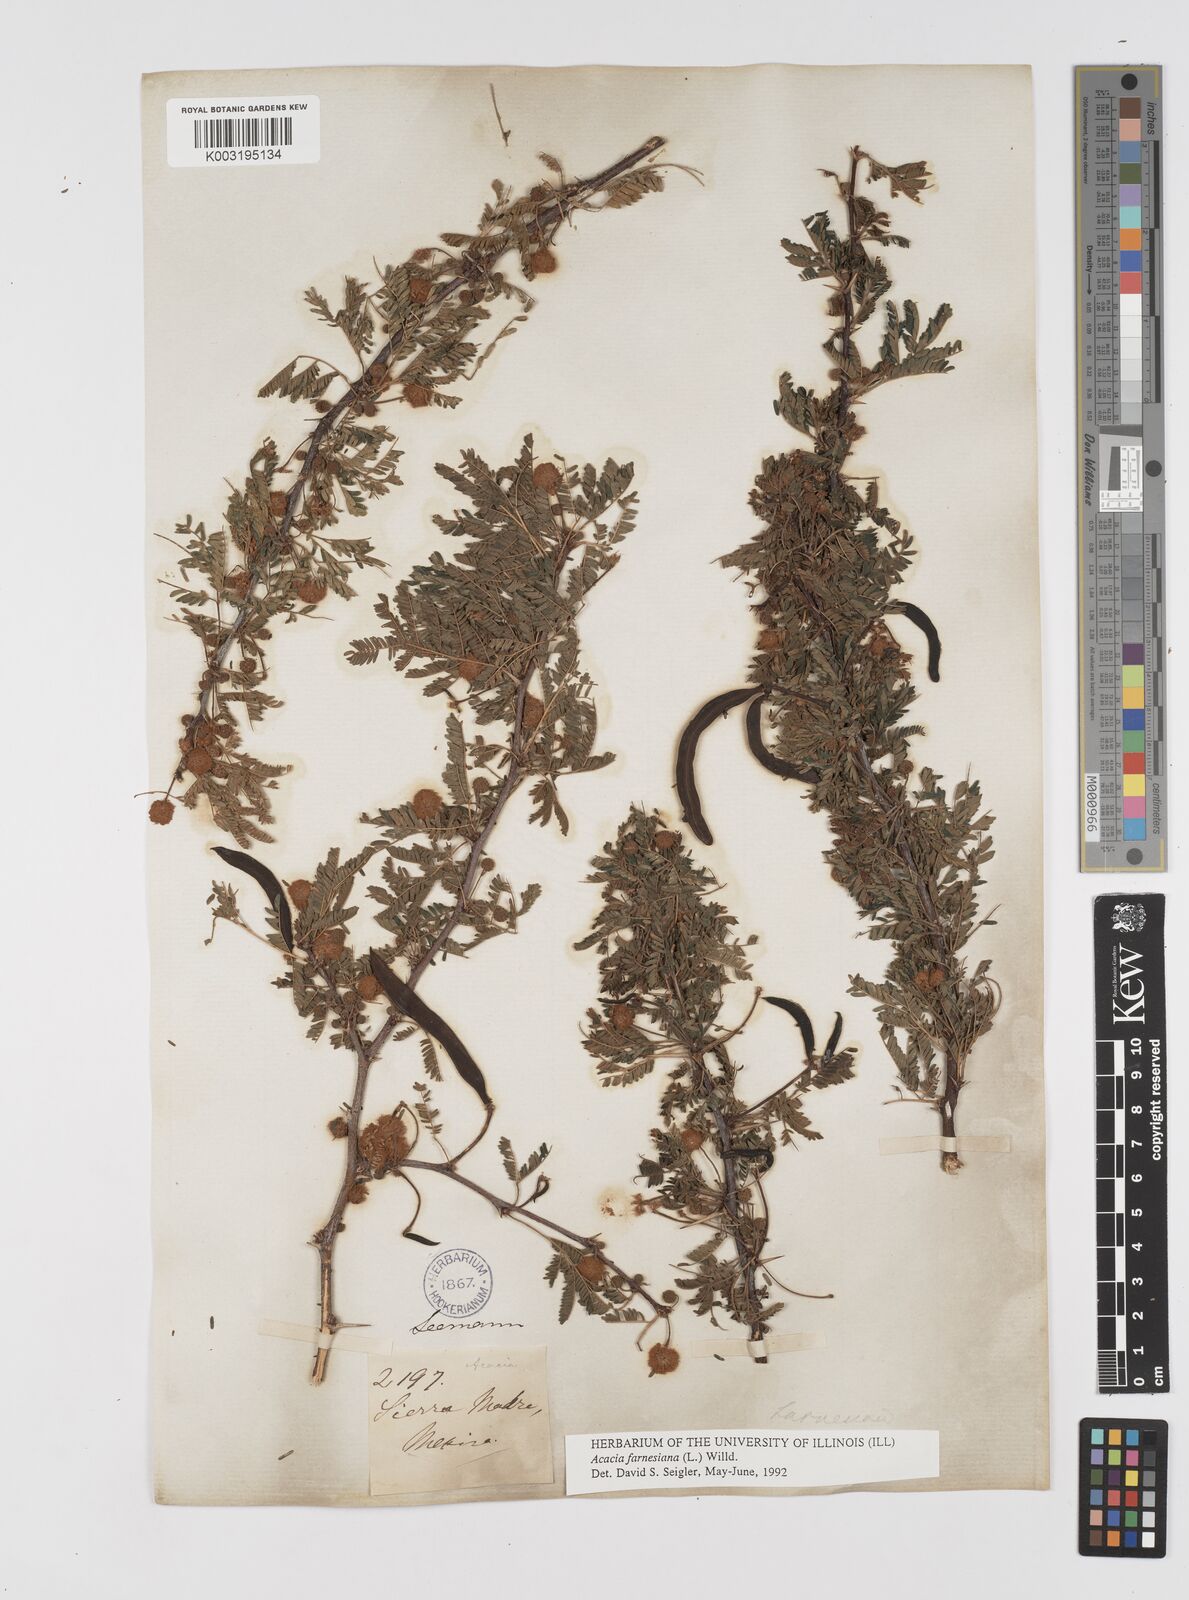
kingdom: Plantae
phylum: Tracheophyta
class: Magnoliopsida
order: Fabales
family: Fabaceae
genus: Vachellia
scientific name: Vachellia farnesiana
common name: Sweet acacia
